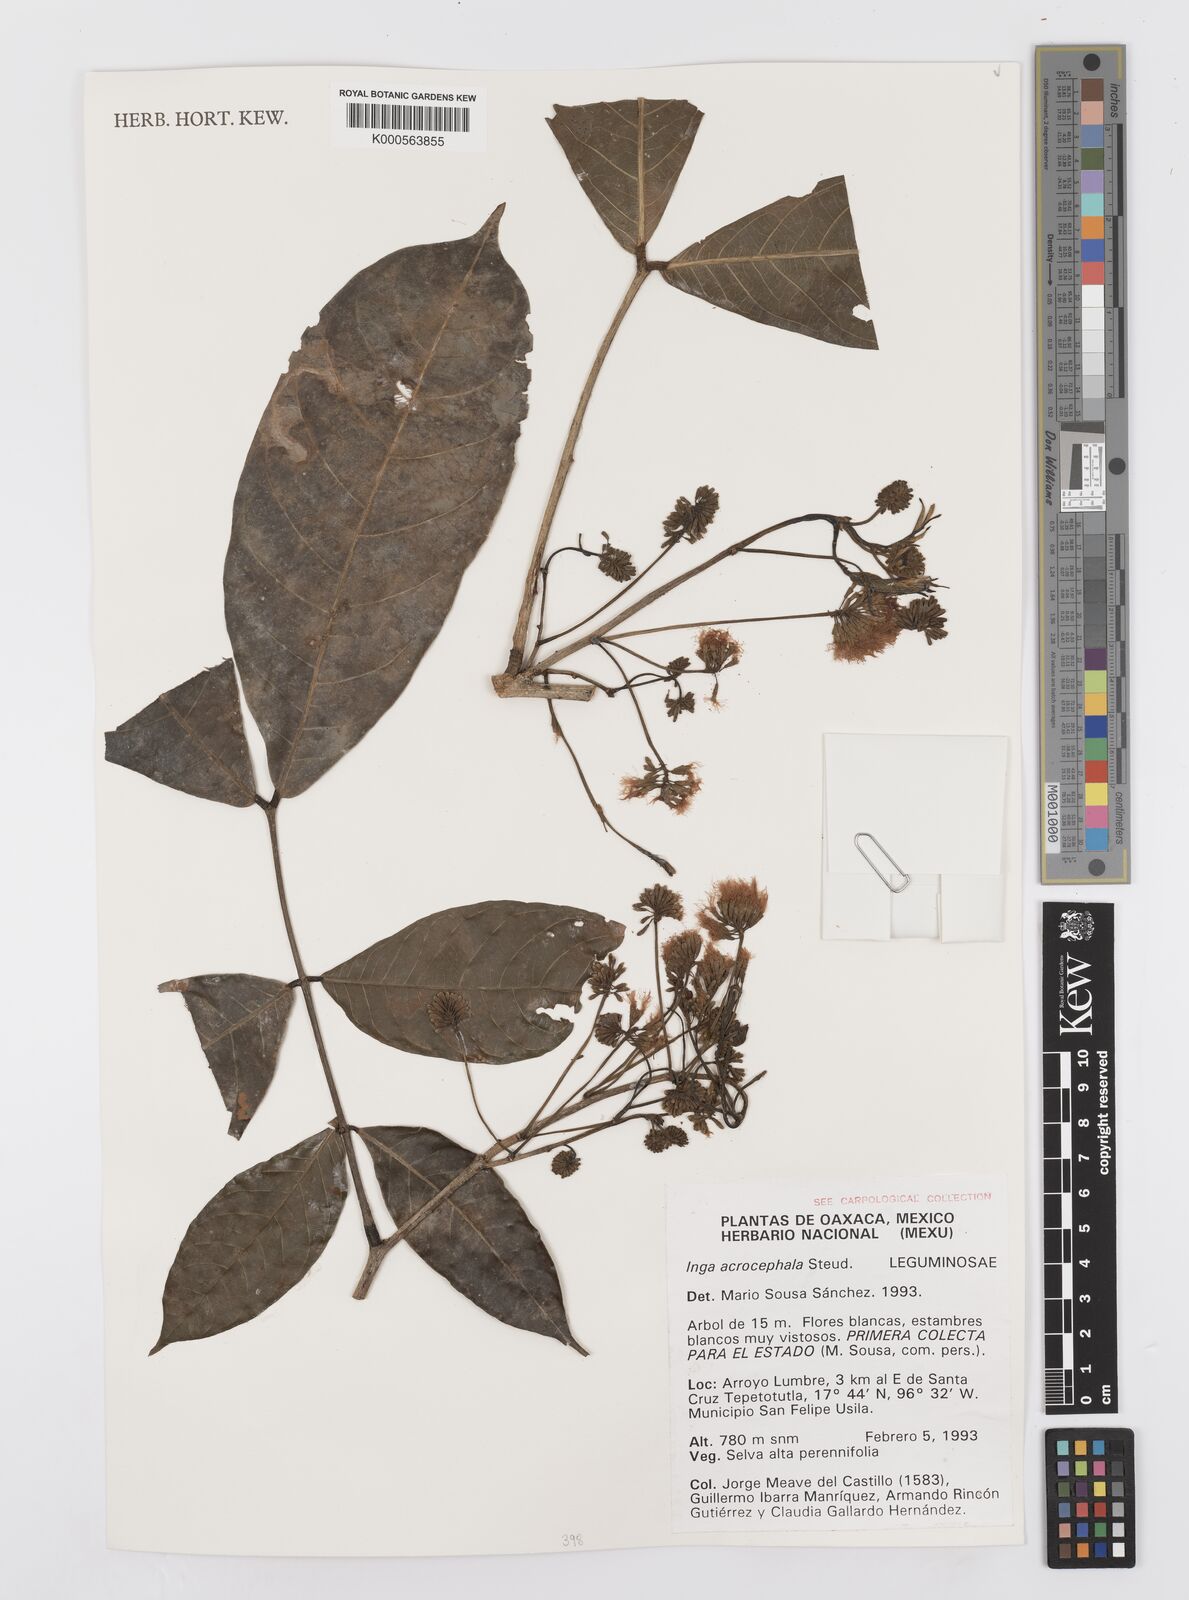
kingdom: Plantae
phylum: Tracheophyta
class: Magnoliopsida
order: Fabales
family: Fabaceae
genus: Inga
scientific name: Inga acrocephala
